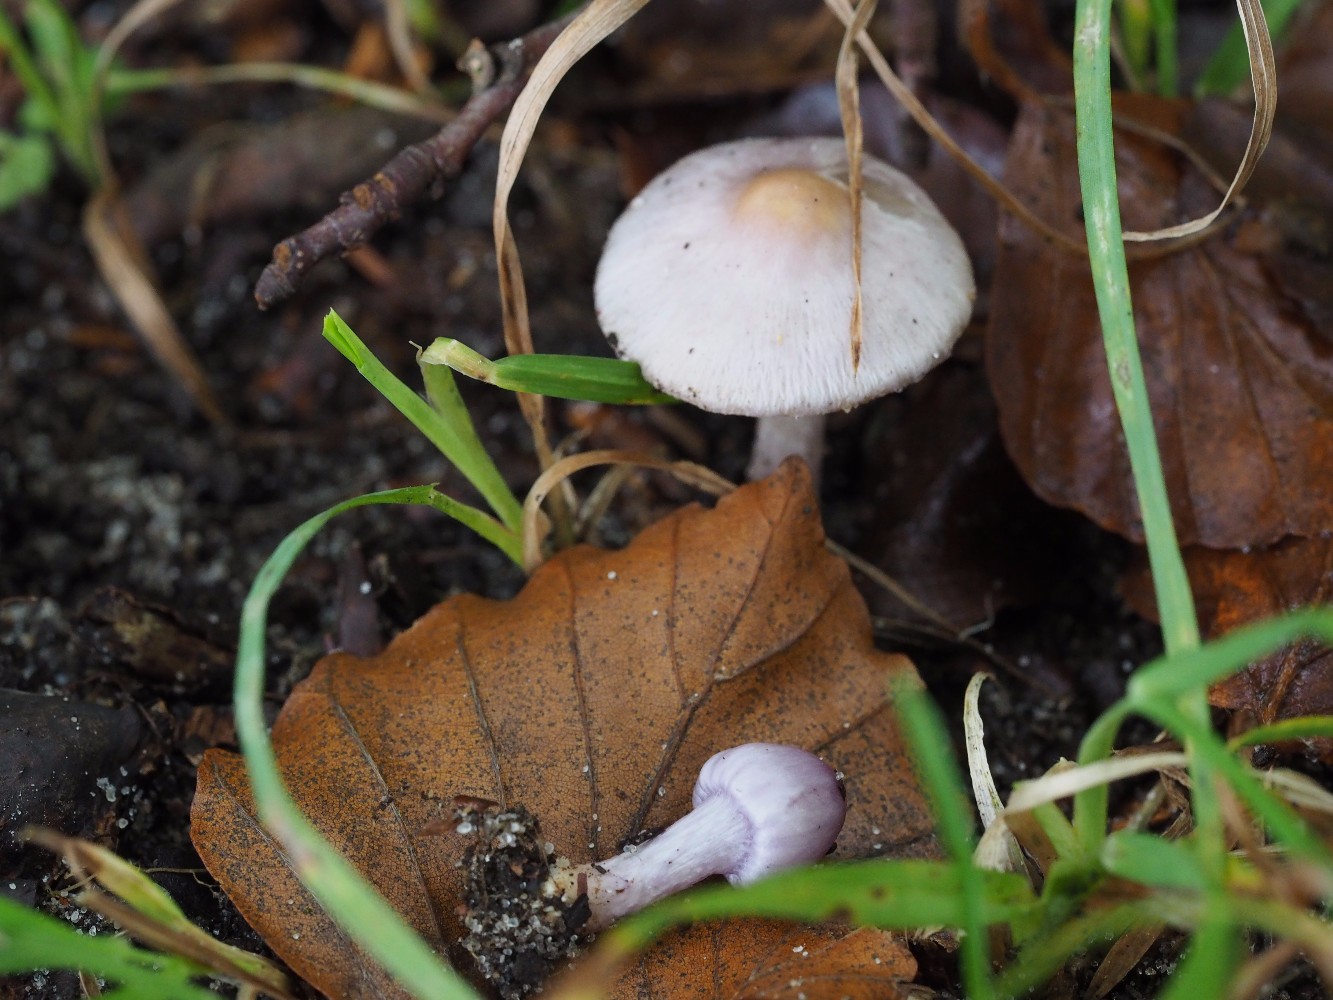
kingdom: Fungi
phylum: Basidiomycota
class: Agaricomycetes
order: Agaricales
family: Inocybaceae
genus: Inocybe
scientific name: Inocybe geophylla
